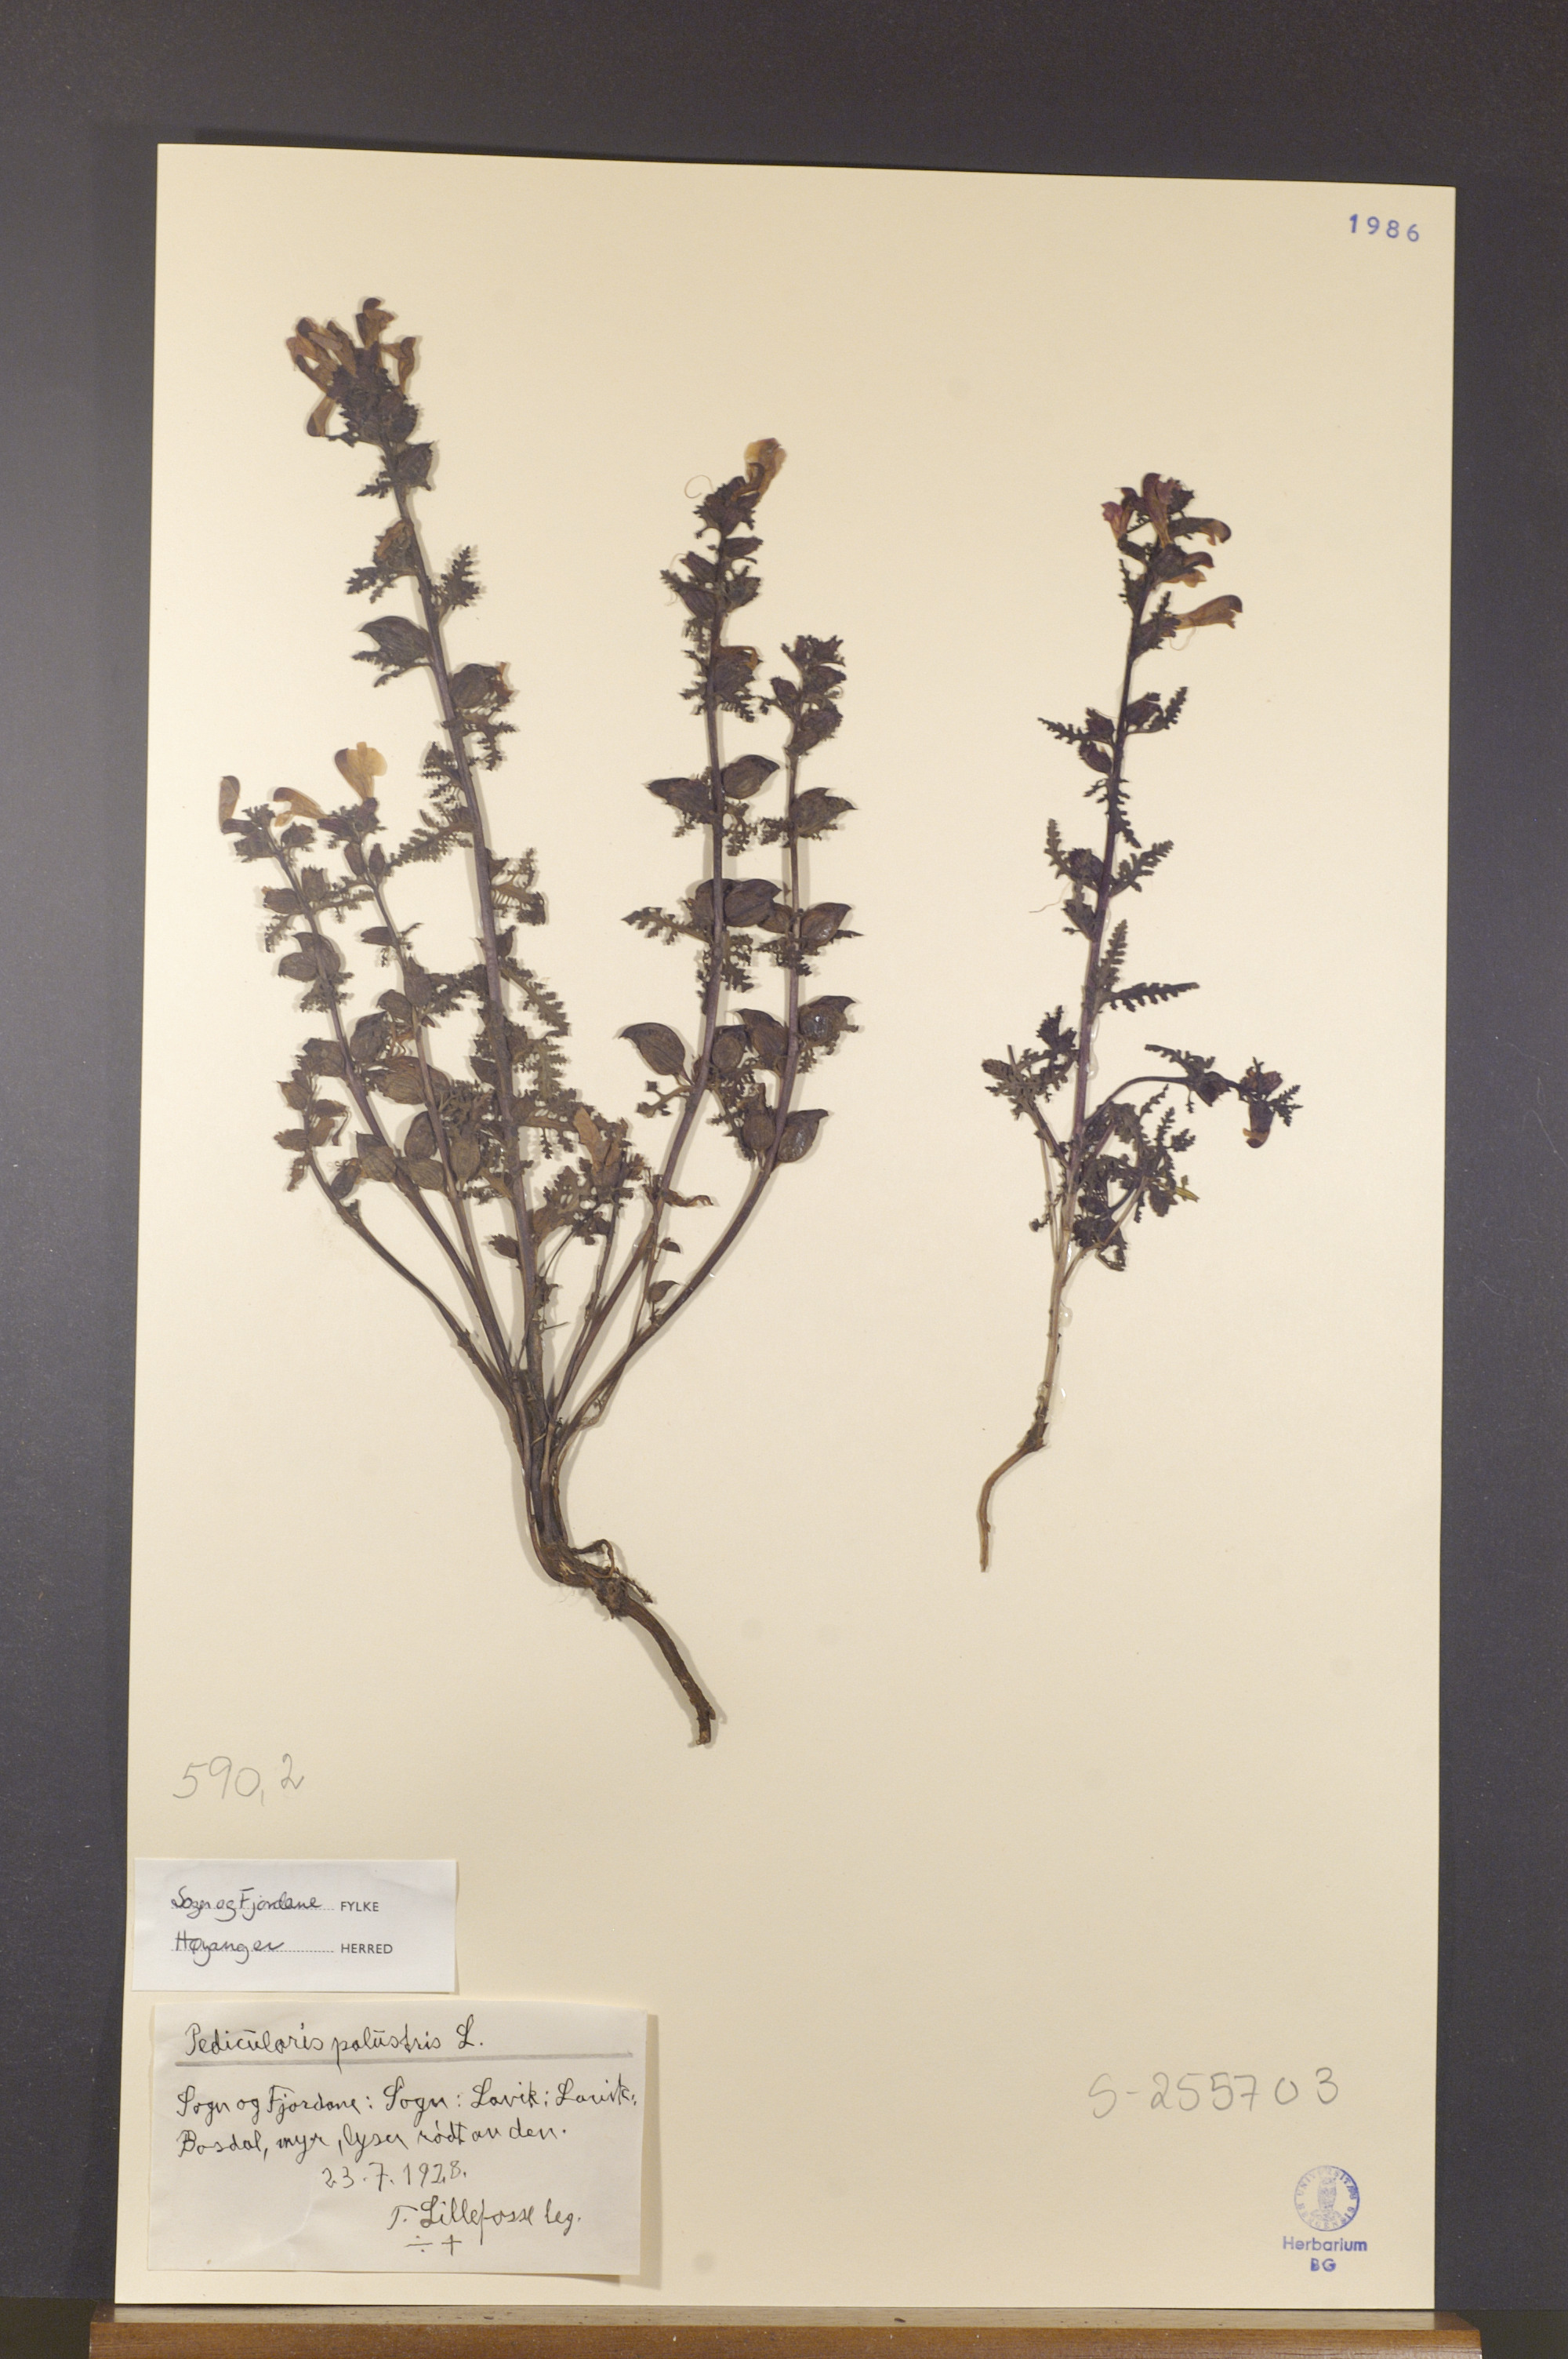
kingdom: Plantae
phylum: Tracheophyta
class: Magnoliopsida
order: Lamiales
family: Orobanchaceae
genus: Pedicularis
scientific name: Pedicularis palustris
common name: Marsh lousewort
